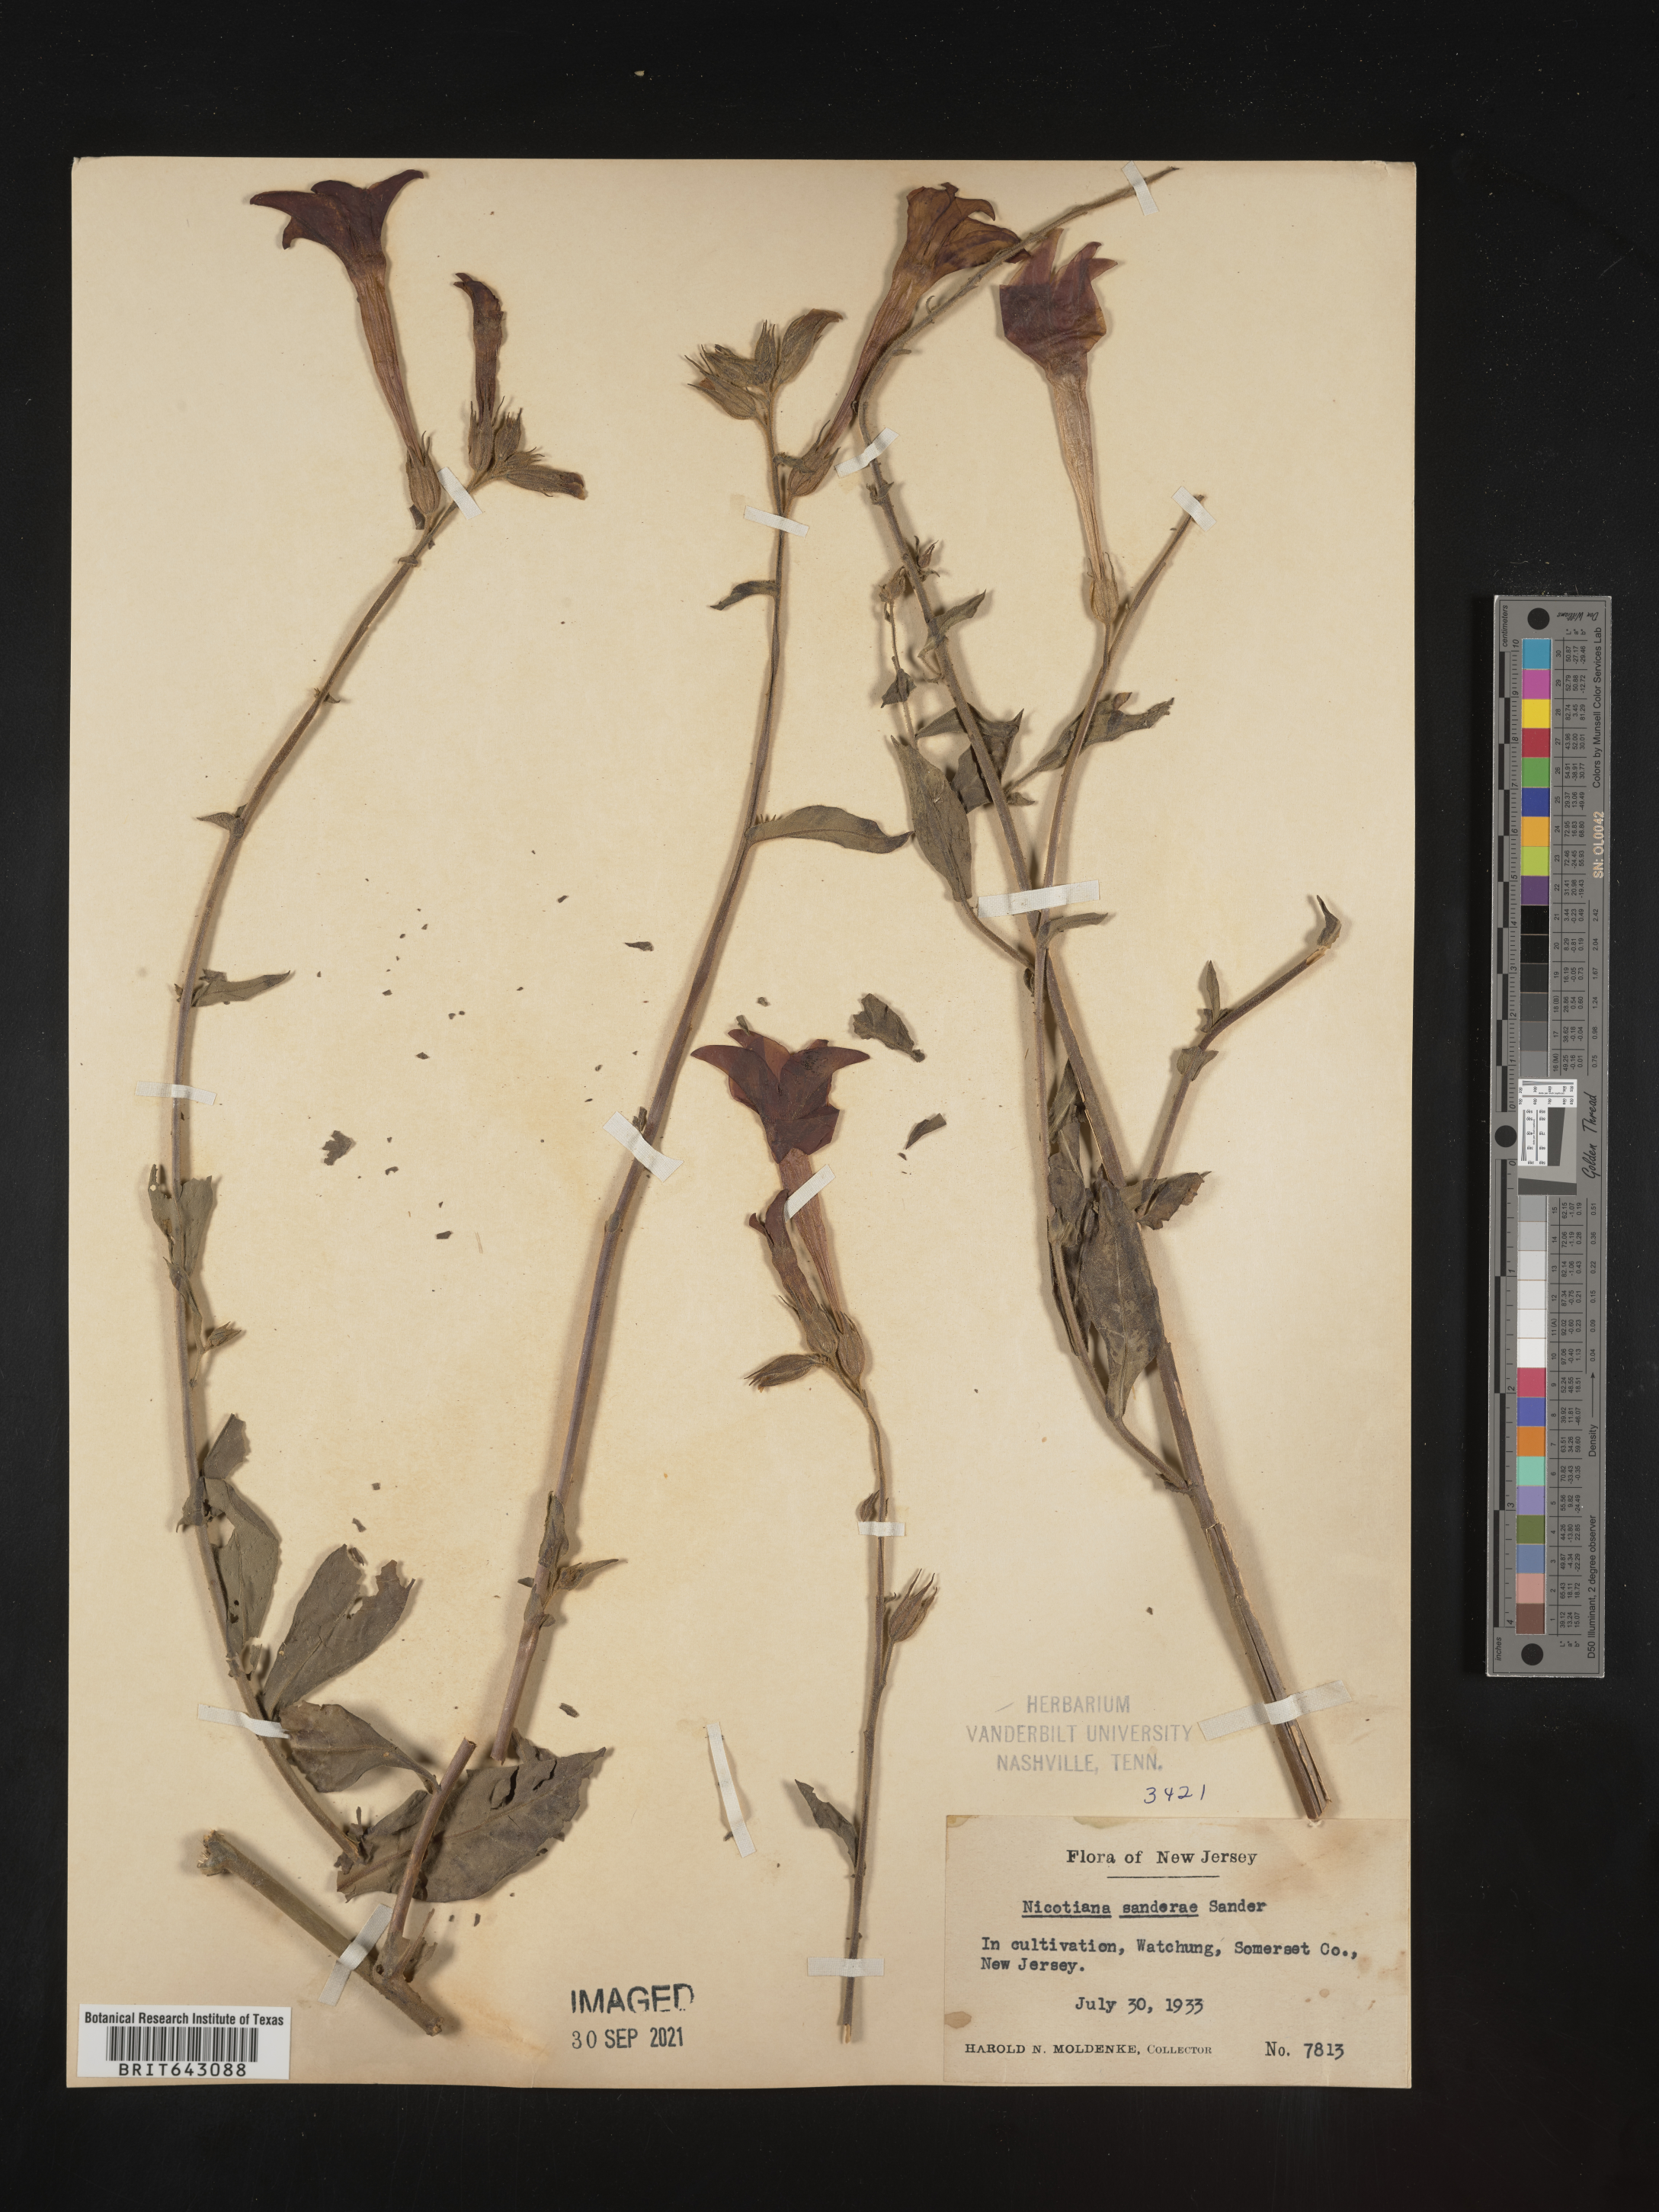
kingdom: Plantae
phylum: Tracheophyta
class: Magnoliopsida
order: Solanales
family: Solanaceae
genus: Nicotiana
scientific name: Nicotiana
